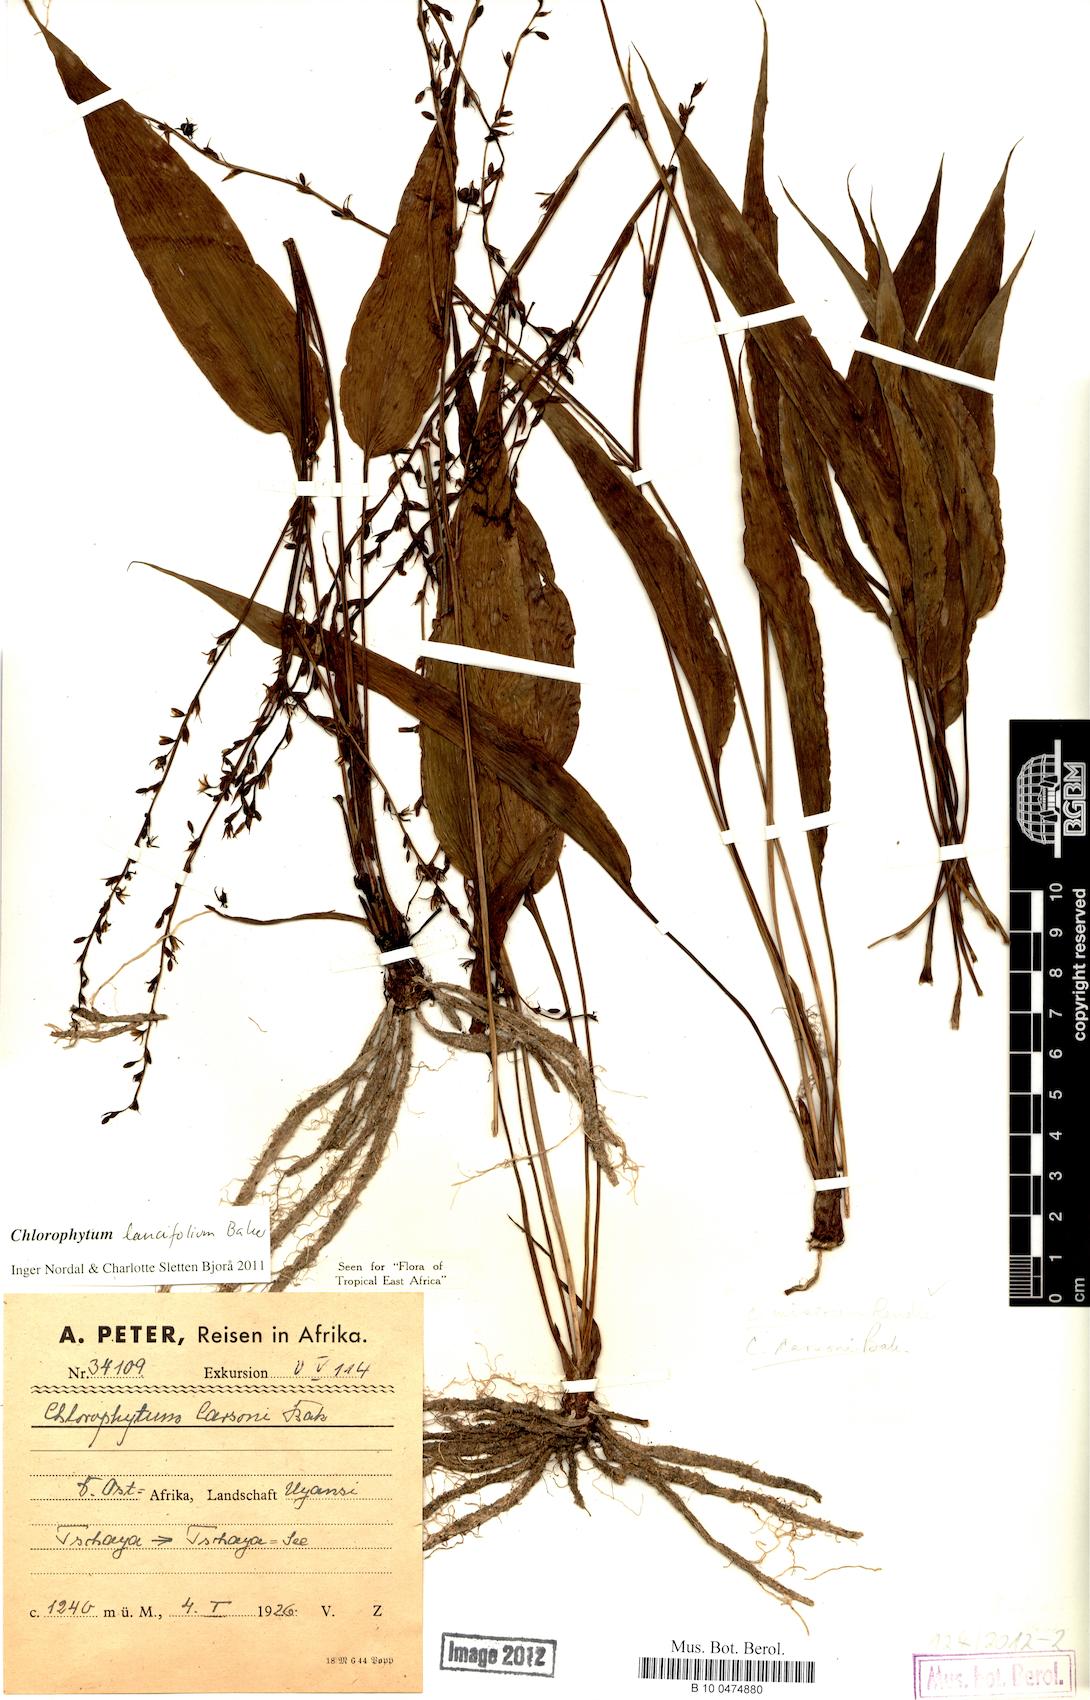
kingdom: Plantae
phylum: Tracheophyta
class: Liliopsida
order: Asparagales
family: Asparagaceae
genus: Chlorophytum
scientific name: Chlorophytum lancifolium
